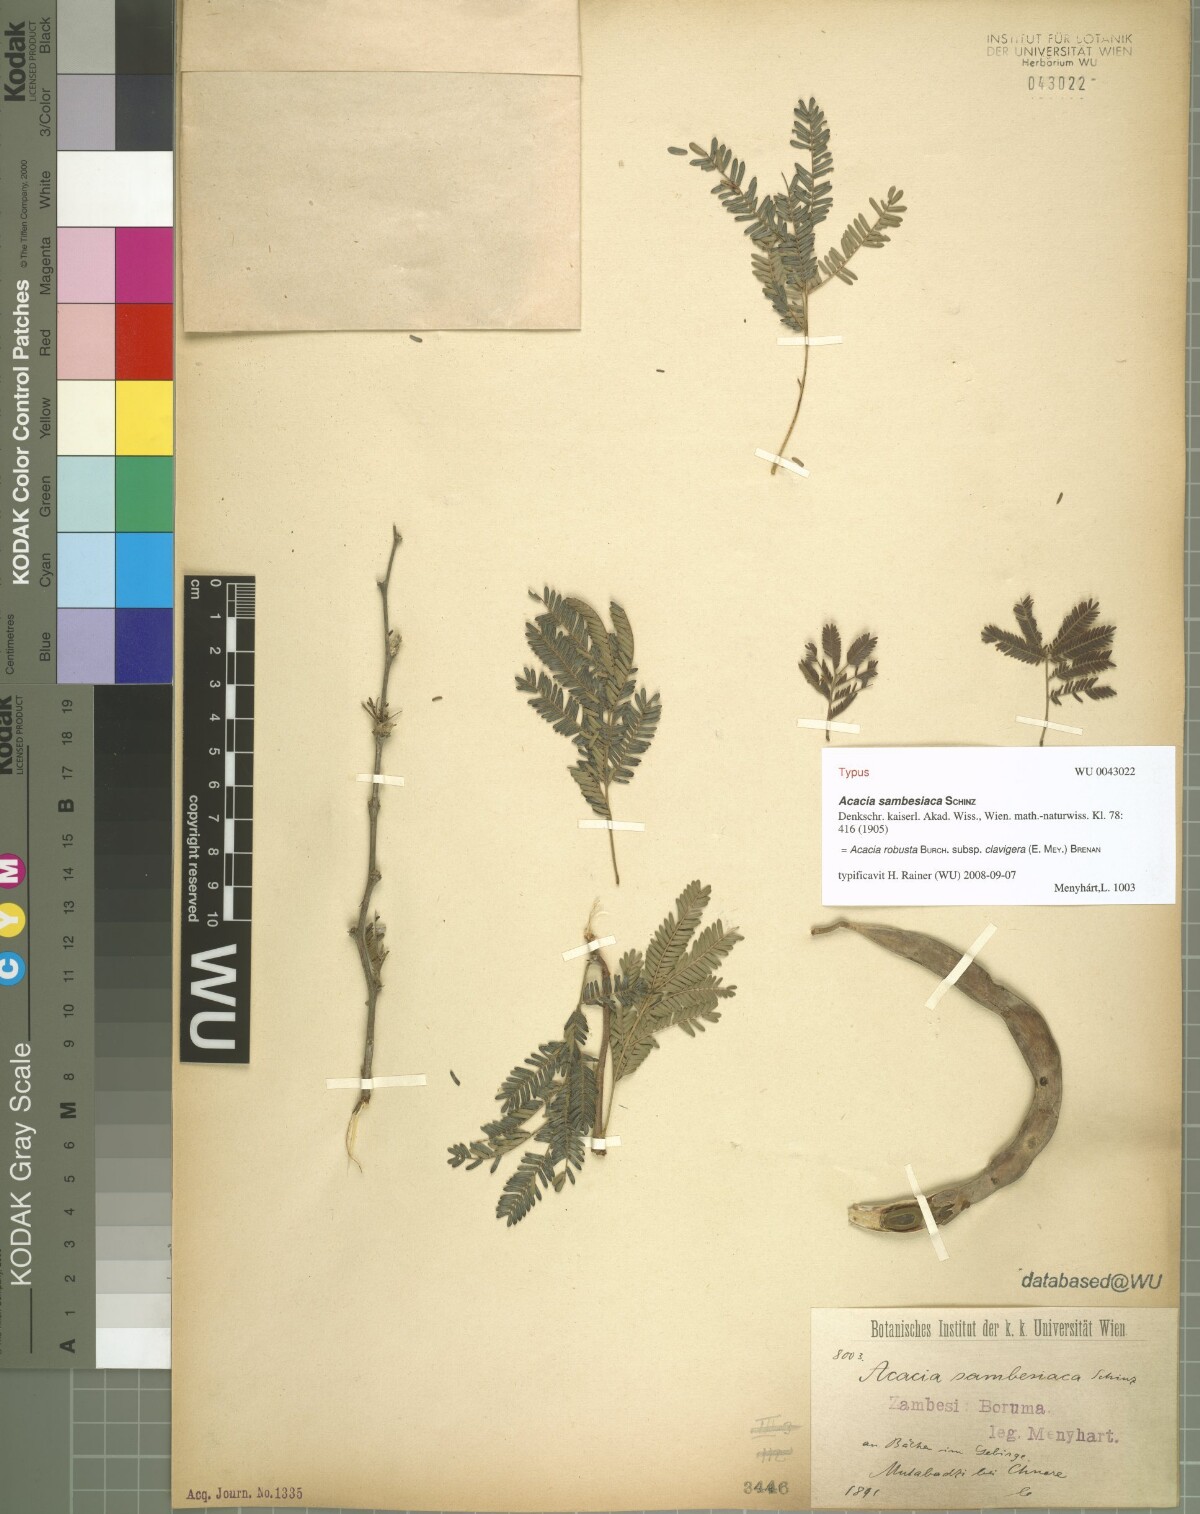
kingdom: Plantae
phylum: Tracheophyta
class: Magnoliopsida
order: Fabales
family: Fabaceae
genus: Vachellia
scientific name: Vachellia robusta
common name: Ankle thorn
